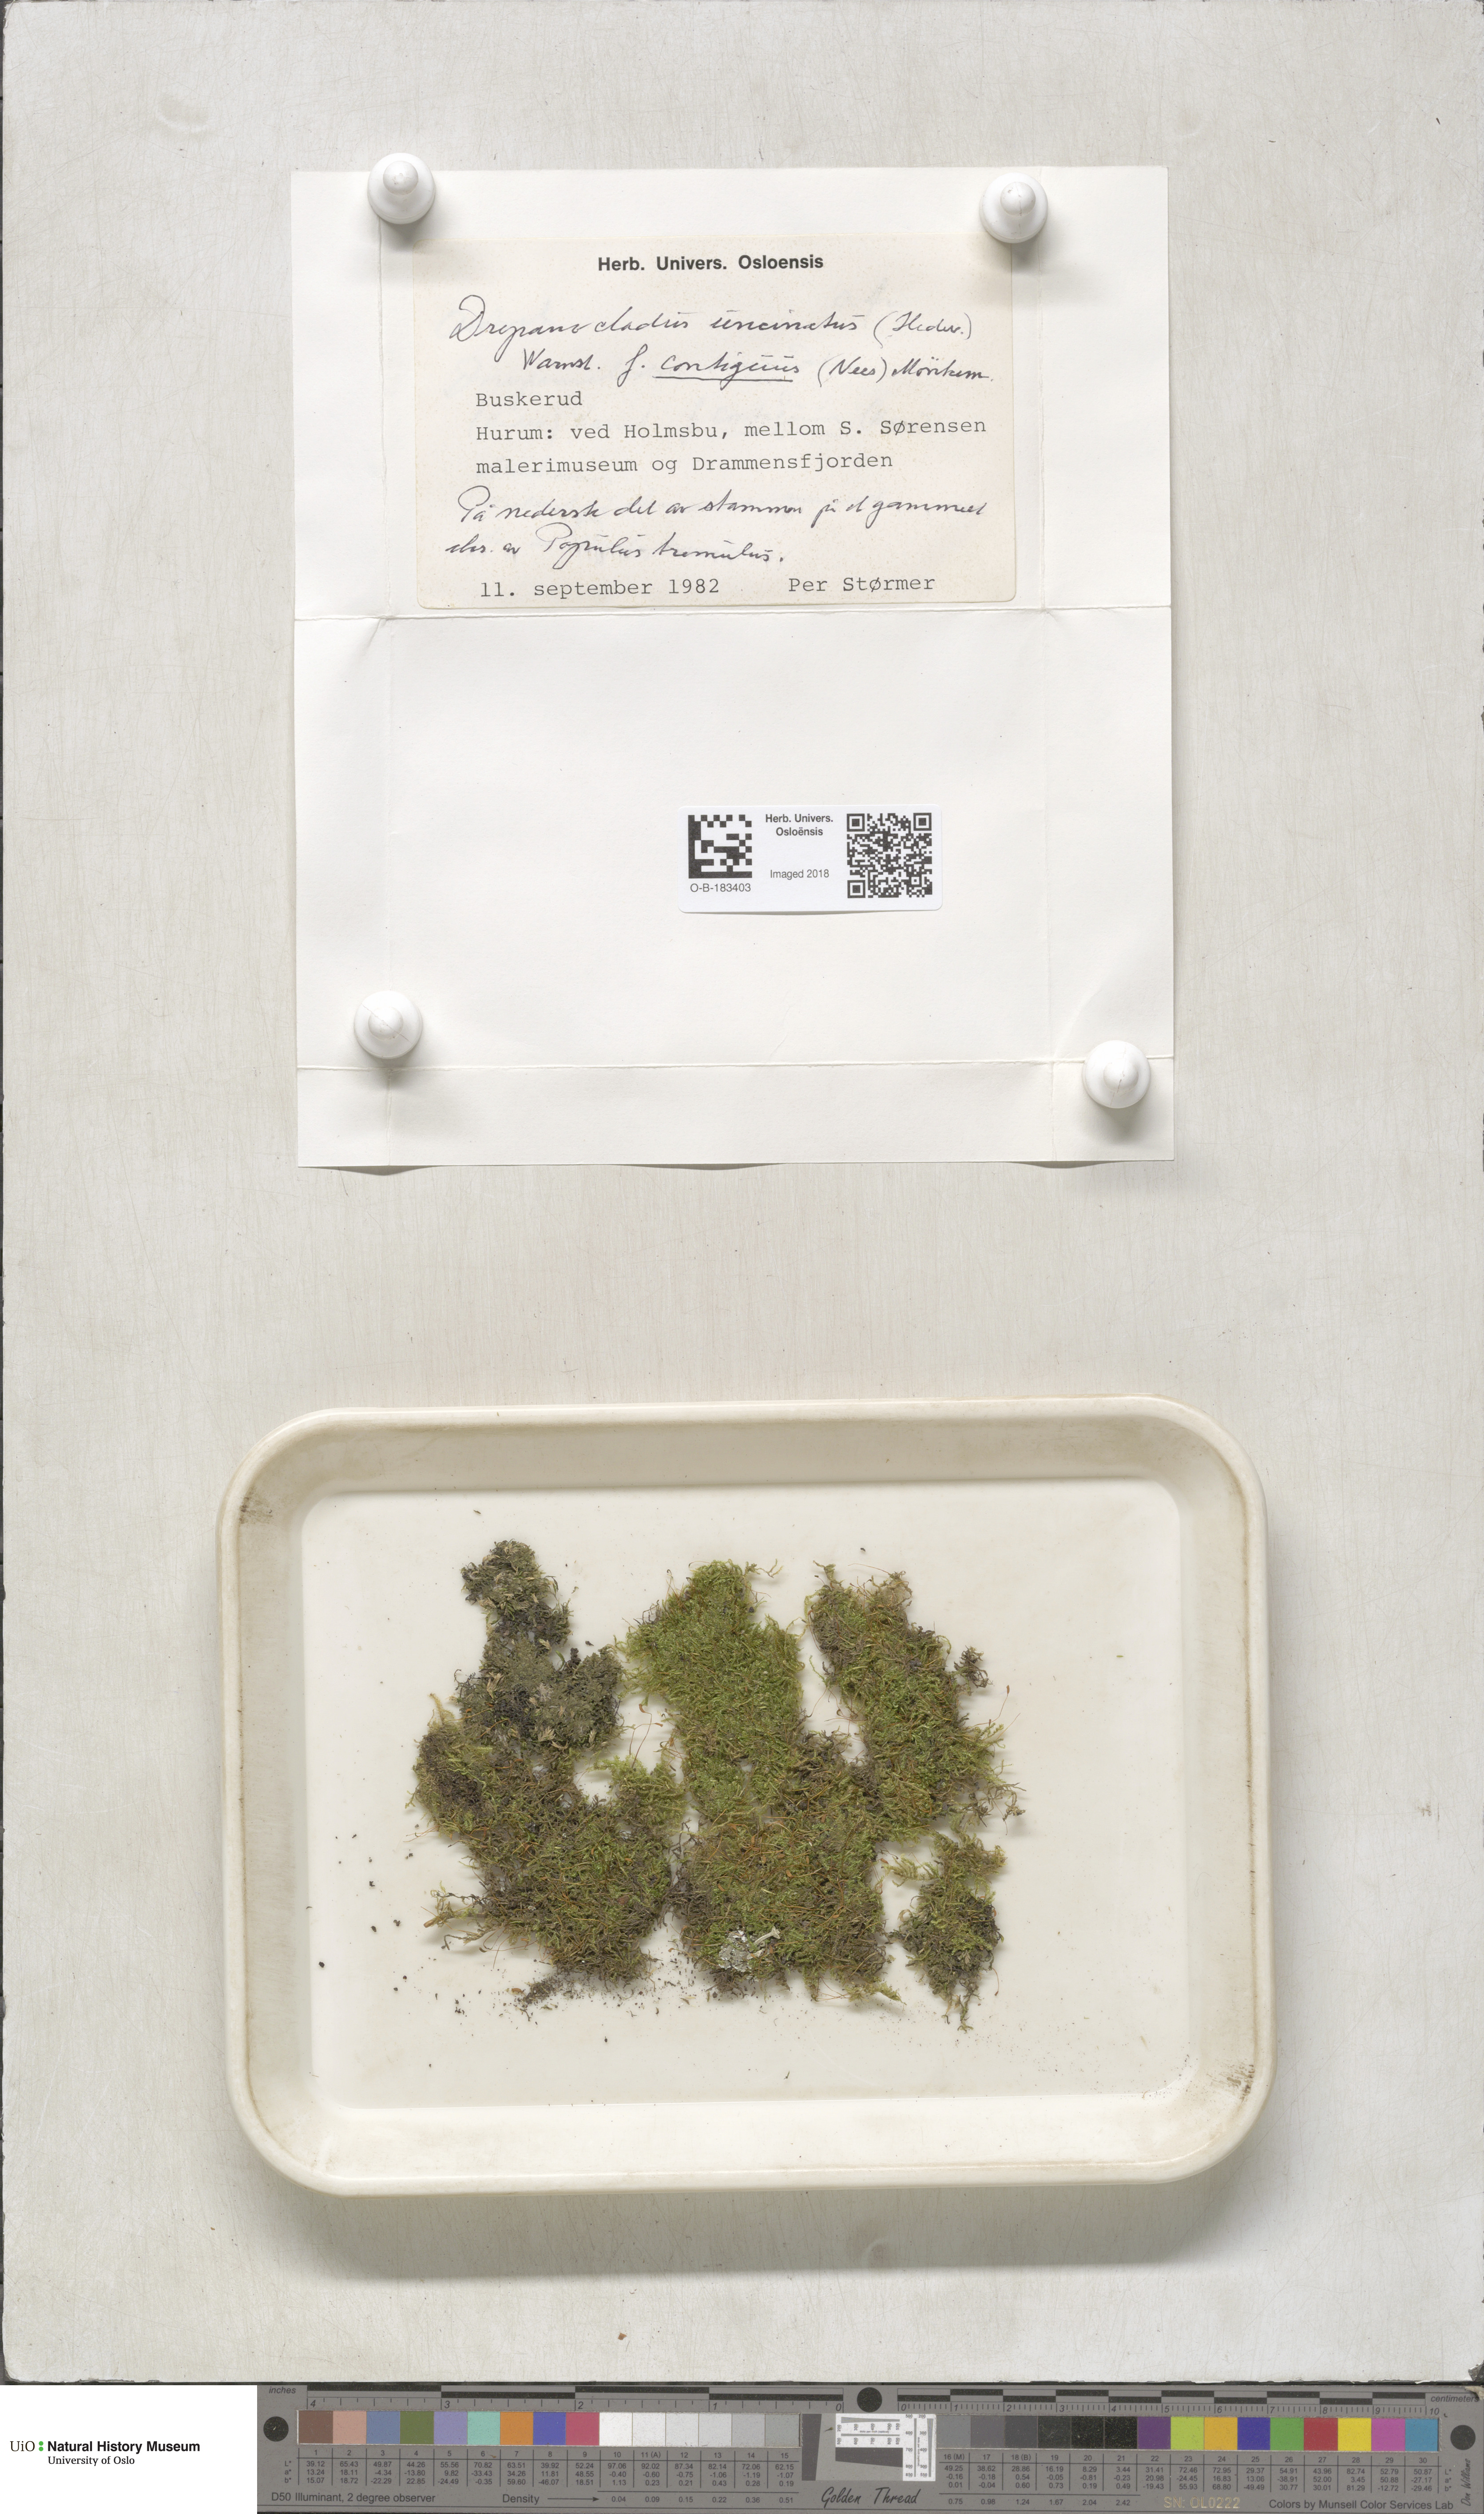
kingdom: Plantae
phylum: Bryophyta
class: Bryopsida
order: Hypnales
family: Scorpidiaceae
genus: Sanionia
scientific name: Sanionia uncinata
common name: Sickle moss
